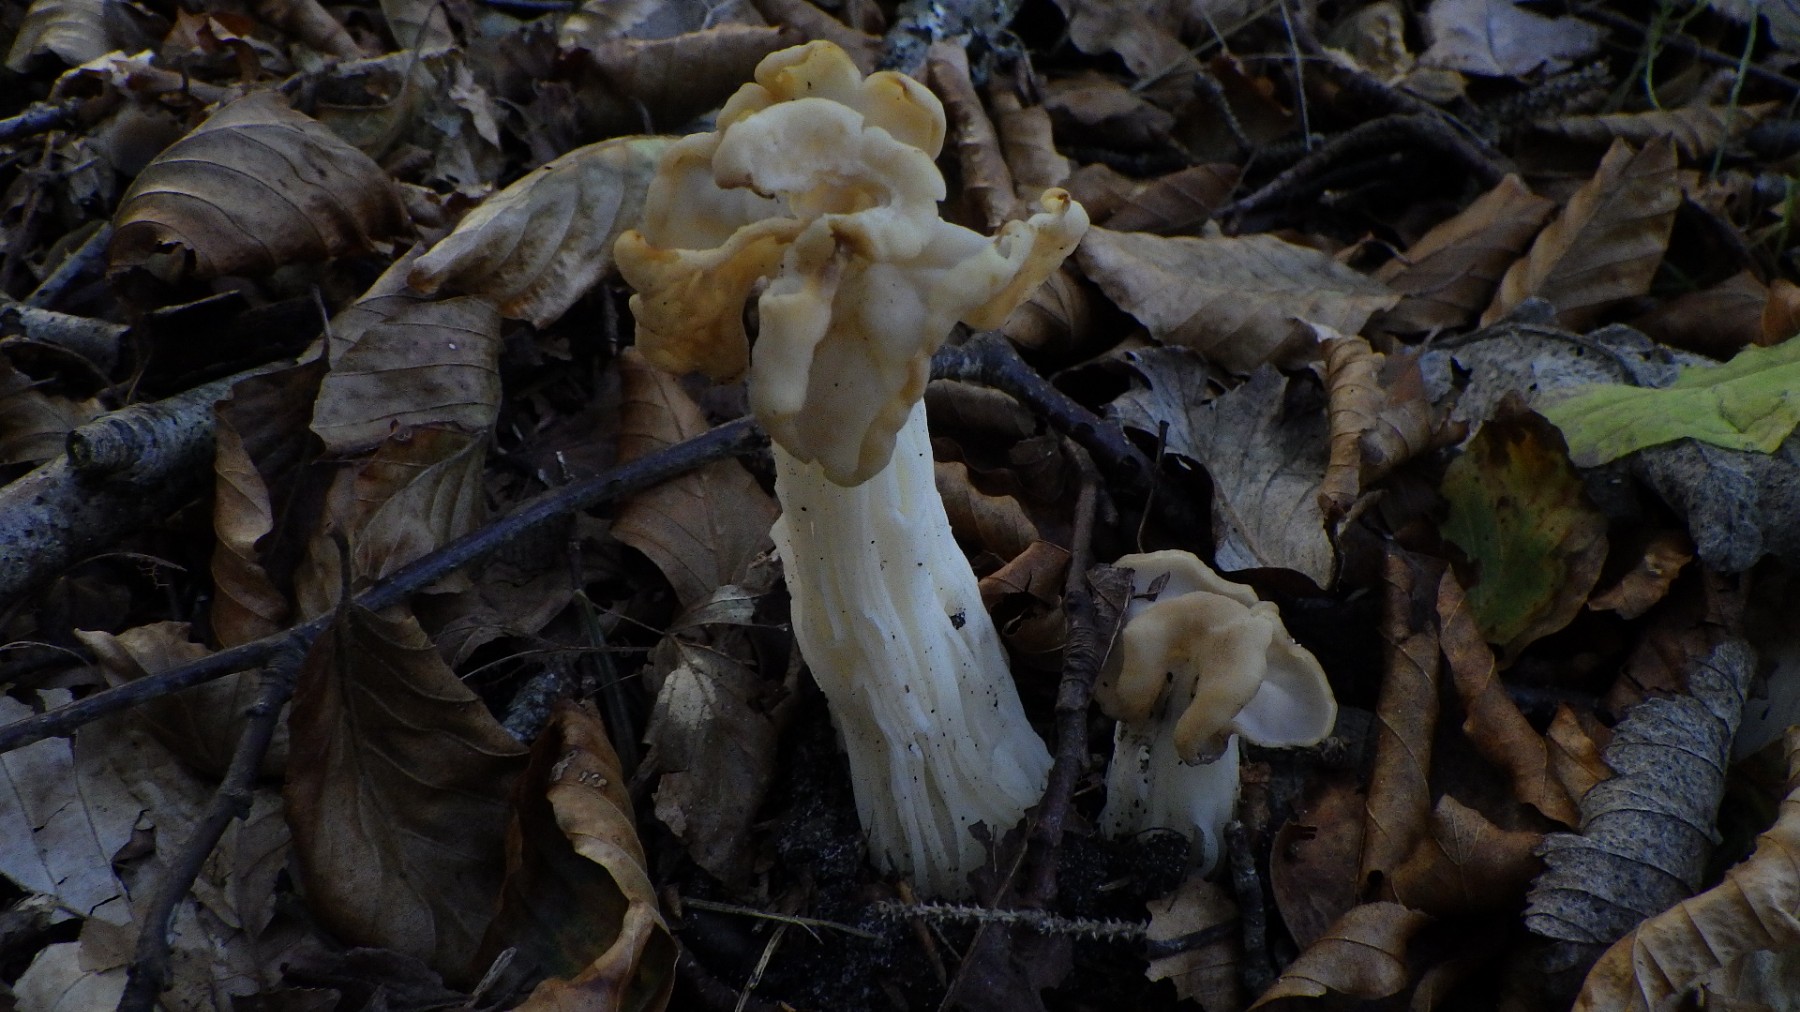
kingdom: Fungi
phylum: Ascomycota
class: Pezizomycetes
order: Pezizales
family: Helvellaceae
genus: Helvella
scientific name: Helvella crispa
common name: kruset foldhat
